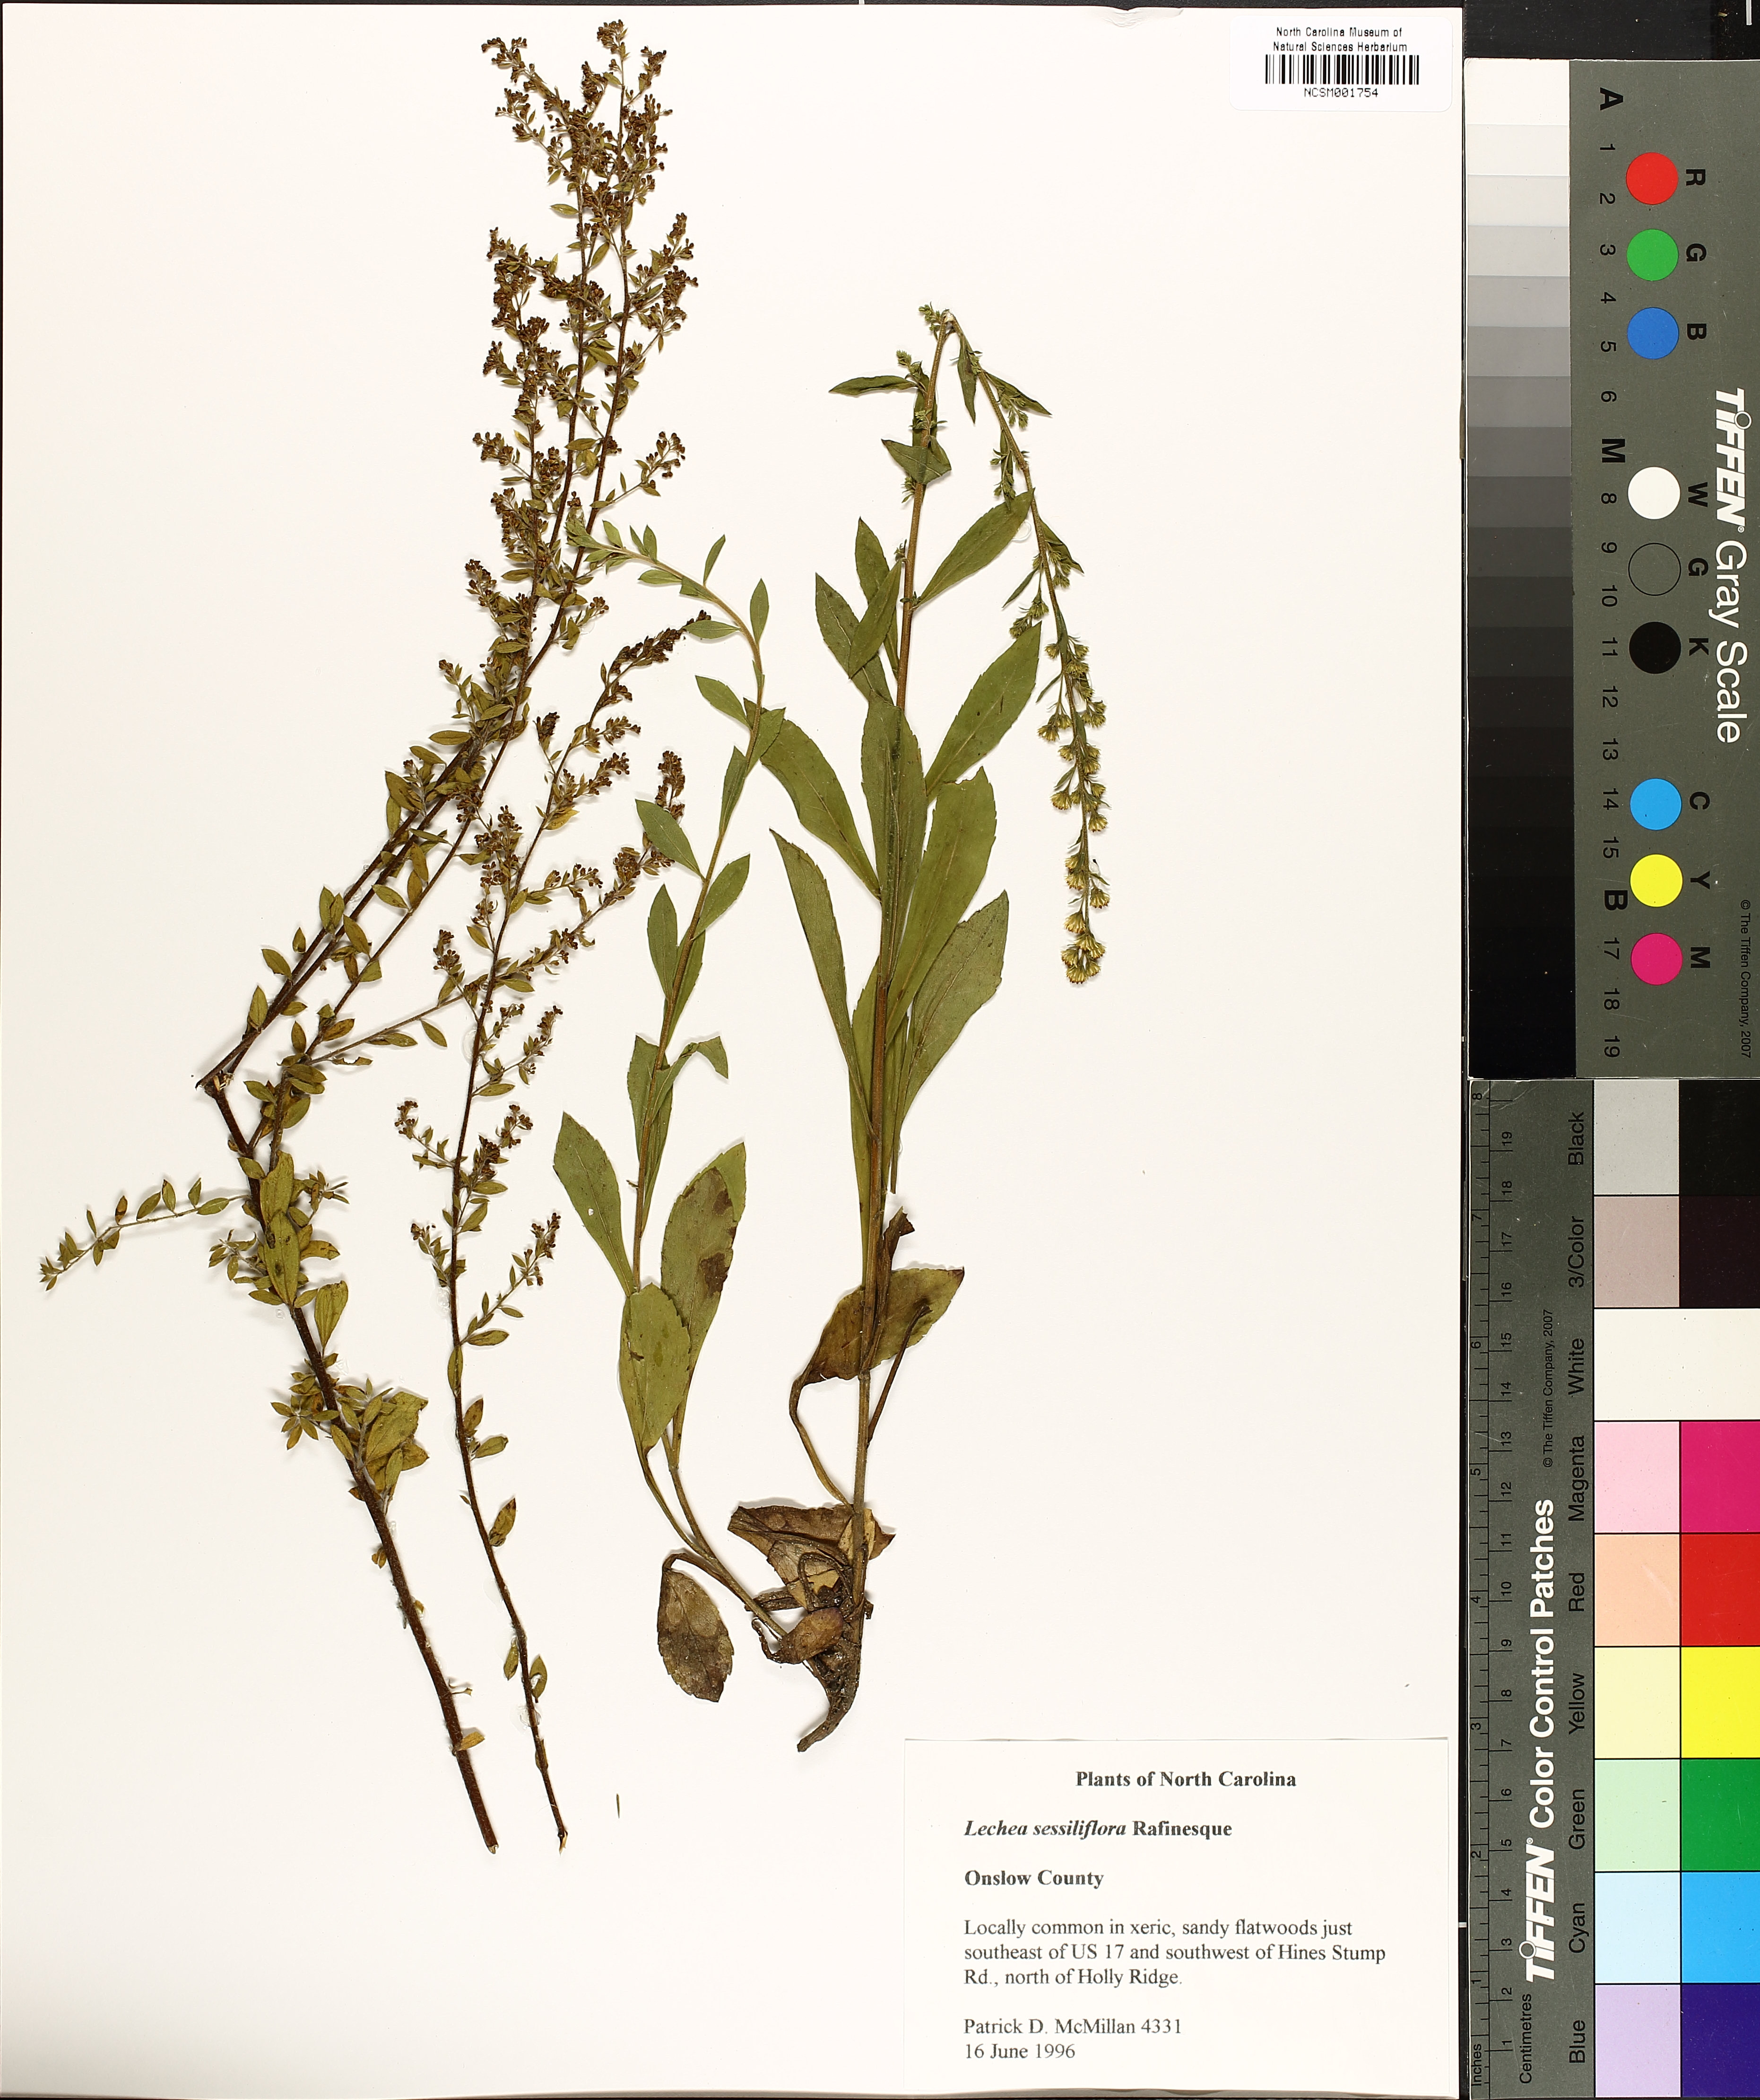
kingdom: Plantae
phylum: Tracheophyta
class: Magnoliopsida
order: Malvales
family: Cistaceae
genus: Lechea
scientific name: Lechea sessiliflora
